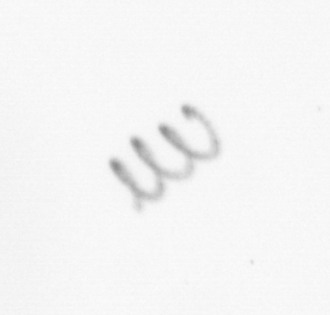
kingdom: Chromista
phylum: Ochrophyta
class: Bacillariophyceae
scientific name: Bacillariophyceae
